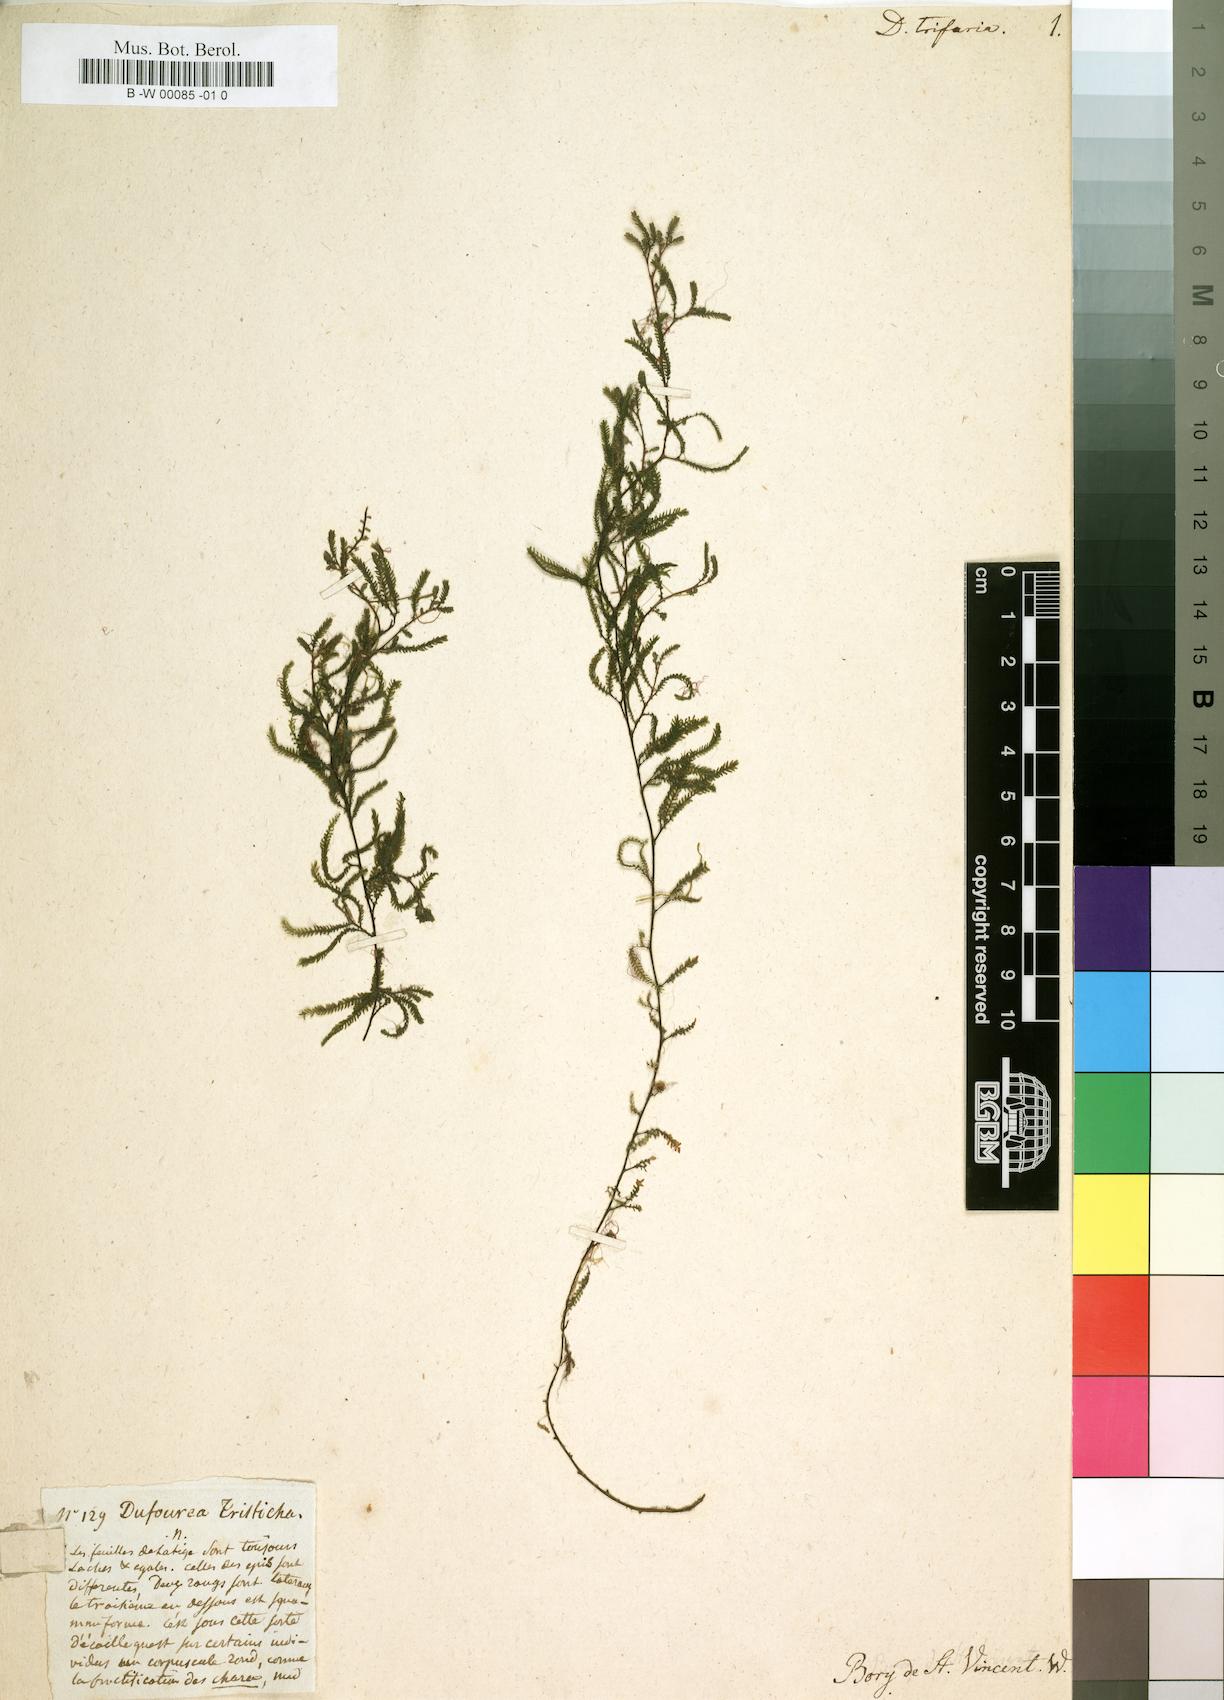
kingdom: Plantae
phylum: Tracheophyta
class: Magnoliopsida
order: Malpighiales
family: Podostemaceae
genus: Tristicha
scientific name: Tristicha trifaria
